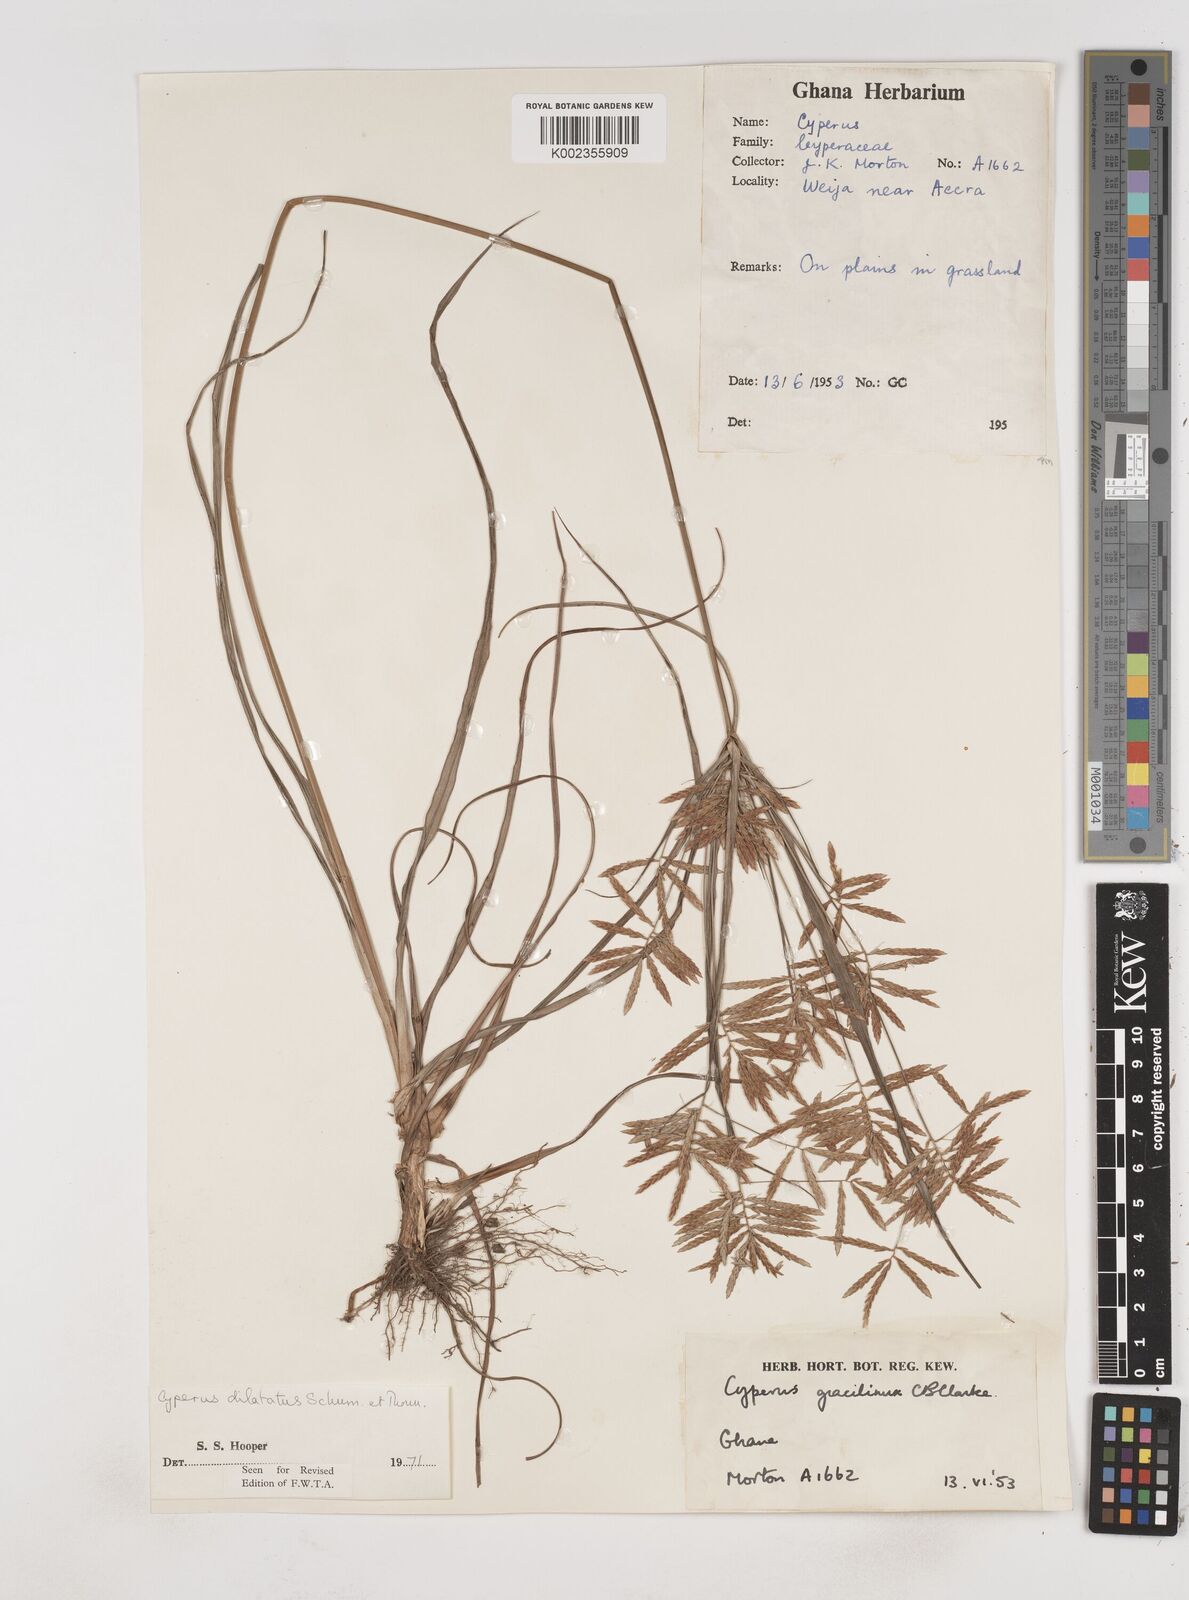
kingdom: Plantae
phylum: Tracheophyta
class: Liliopsida
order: Poales
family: Cyperaceae
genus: Cyperus
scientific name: Cyperus dilatatus
